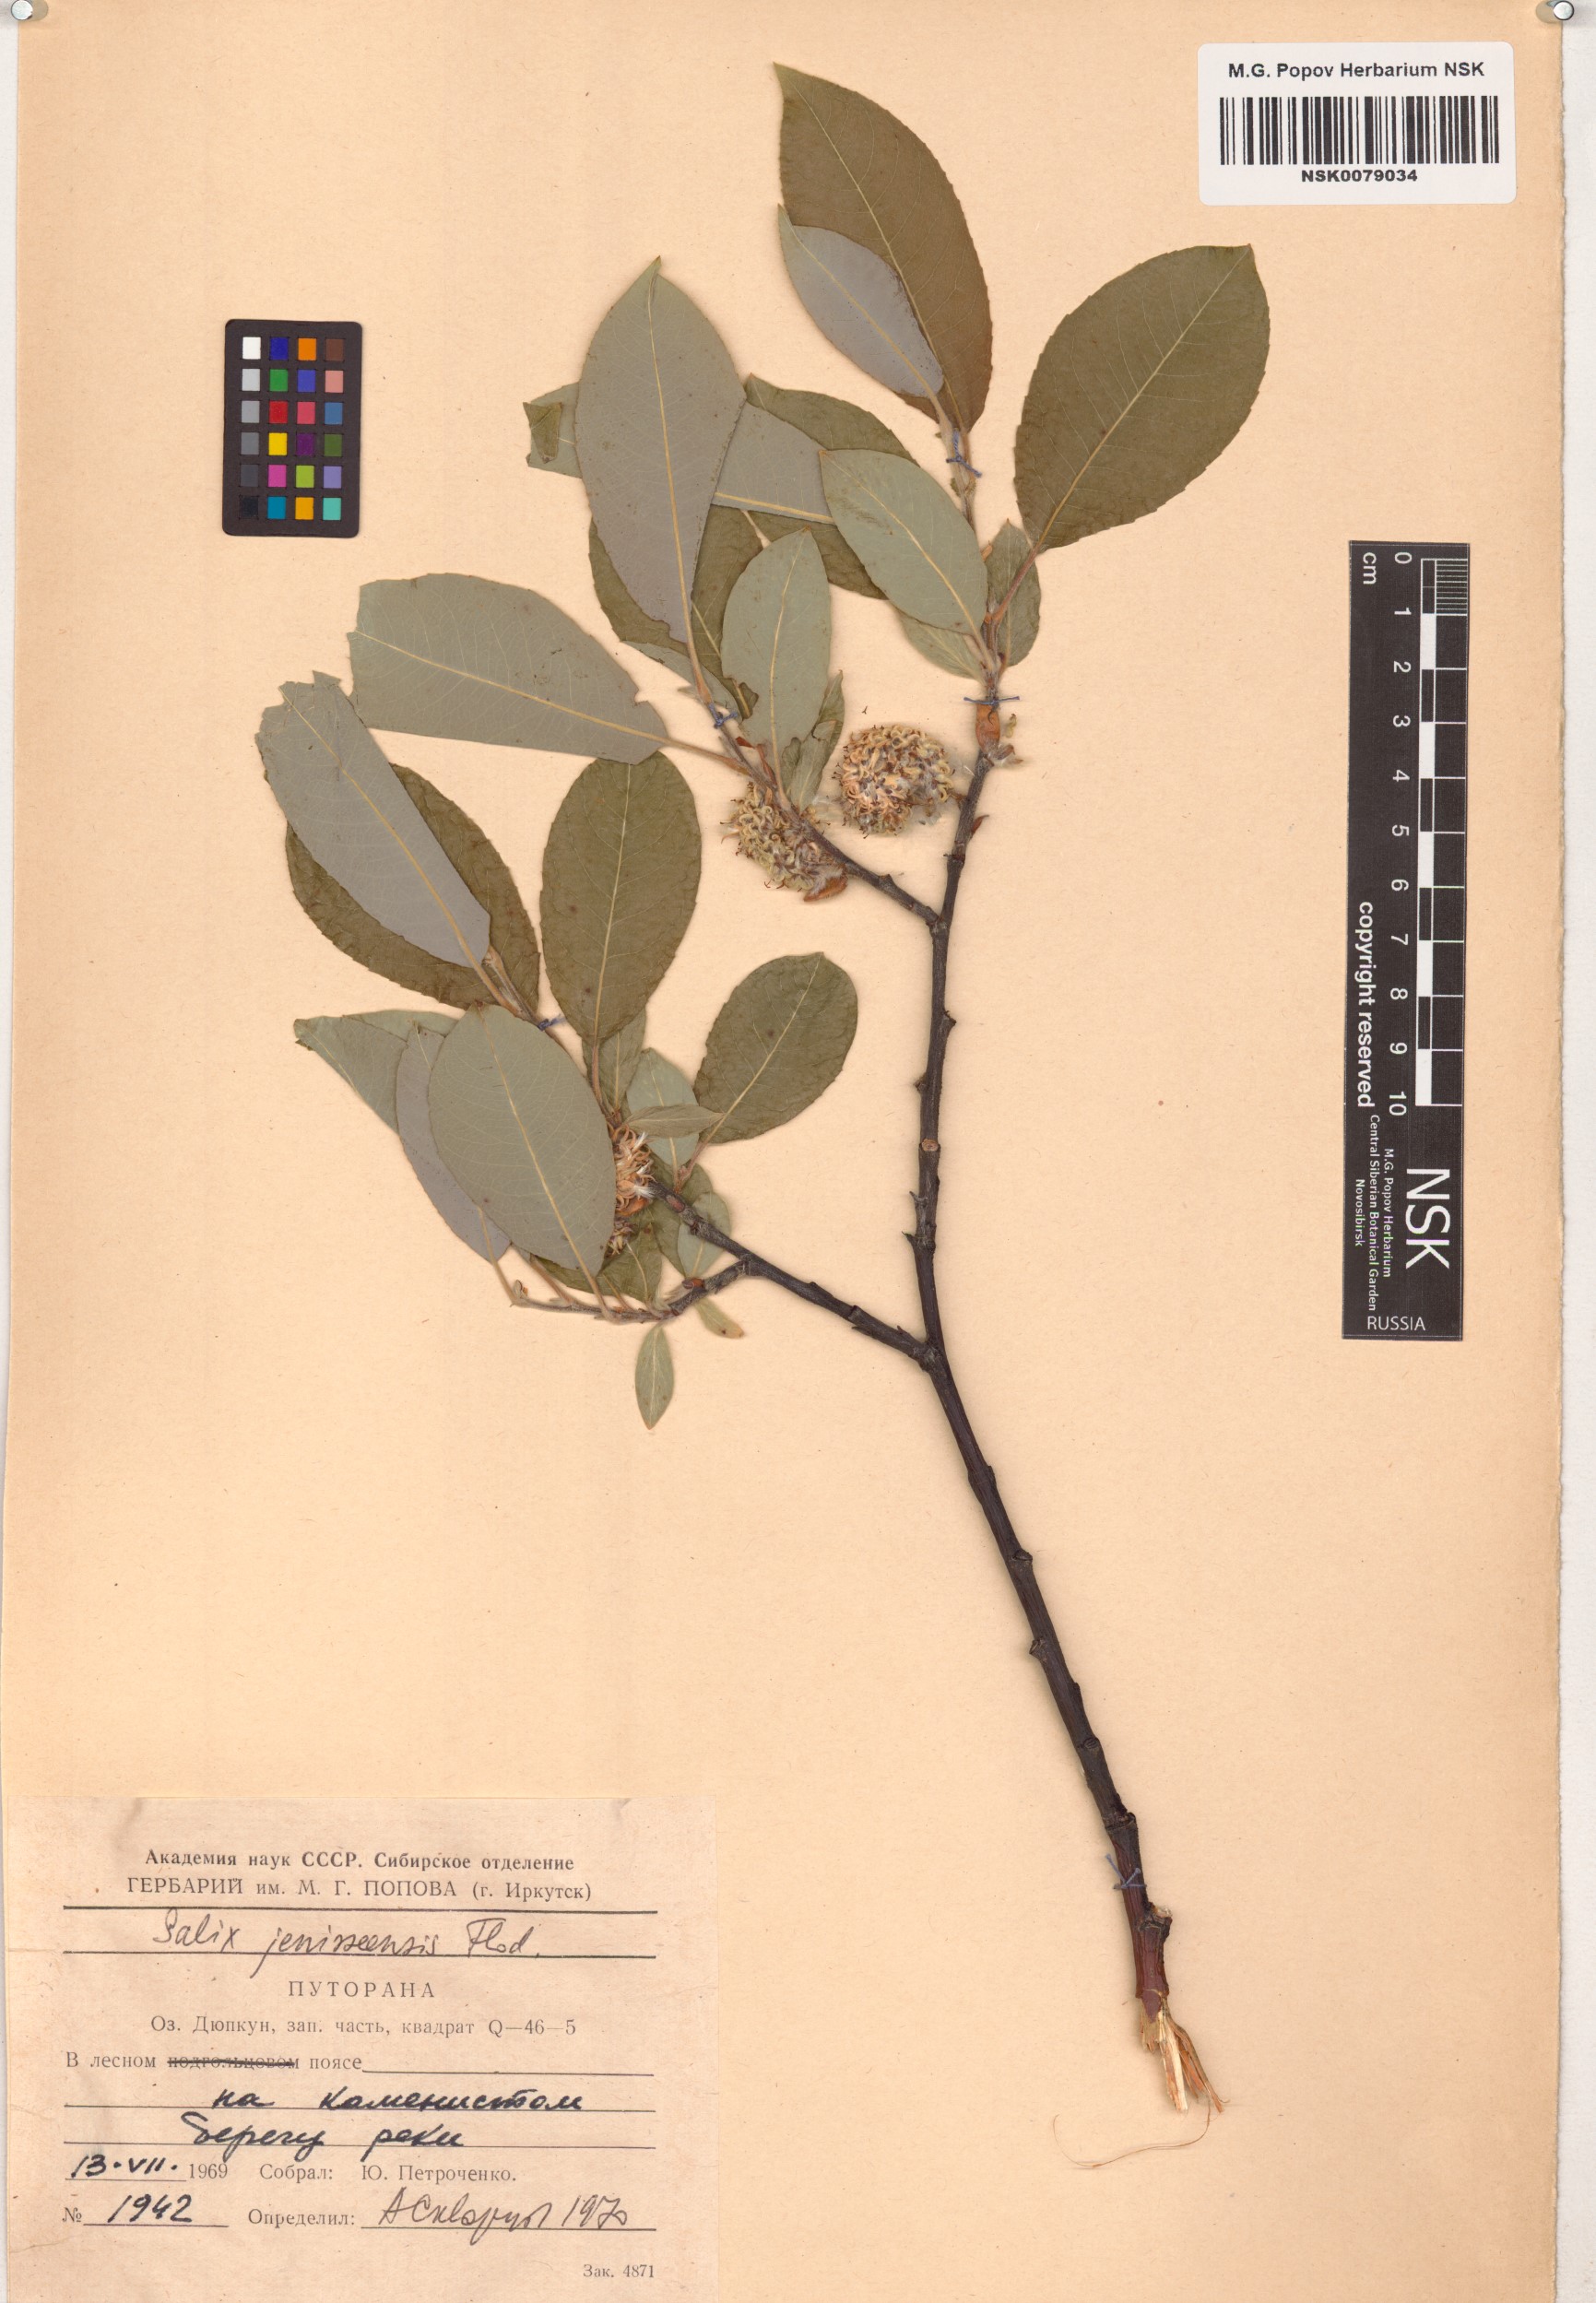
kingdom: Plantae
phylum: Tracheophyta
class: Magnoliopsida
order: Malpighiales
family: Salicaceae
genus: Salix
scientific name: Salix jenisseensis
